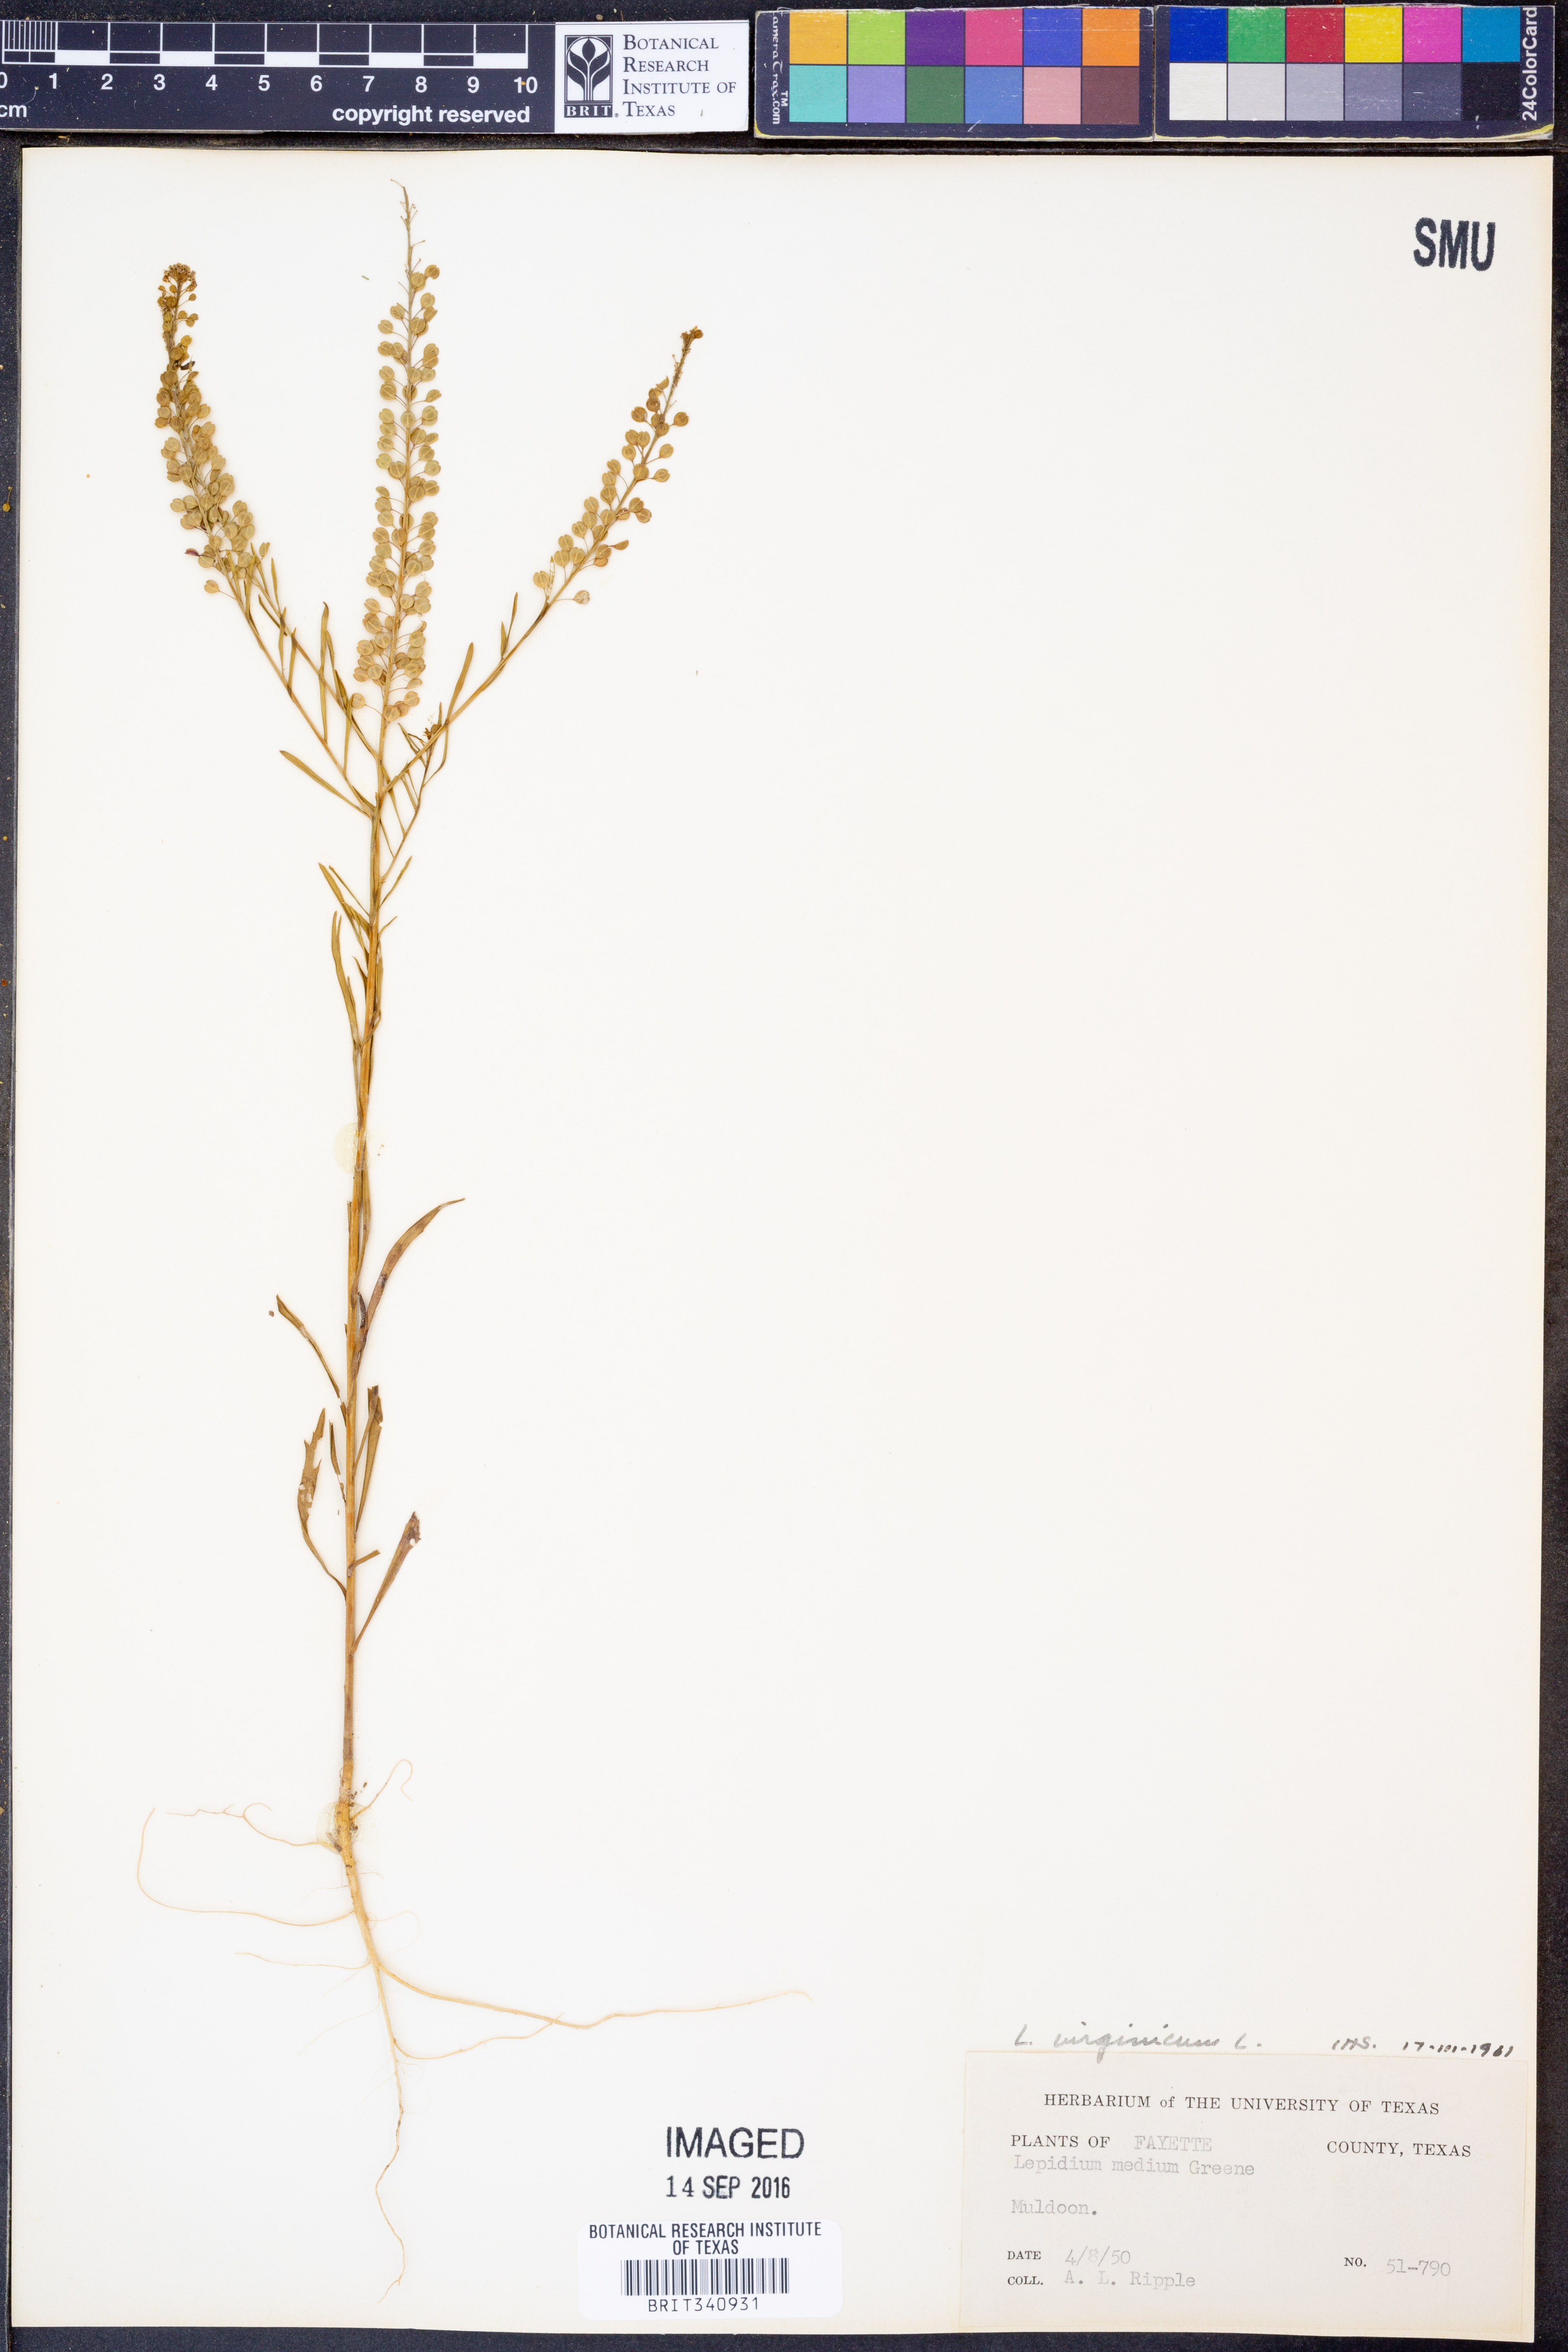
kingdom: Plantae
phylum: Tracheophyta
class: Magnoliopsida
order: Brassicales
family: Brassicaceae
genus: Lepidium
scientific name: Lepidium virginicum
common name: Least pepperwort
